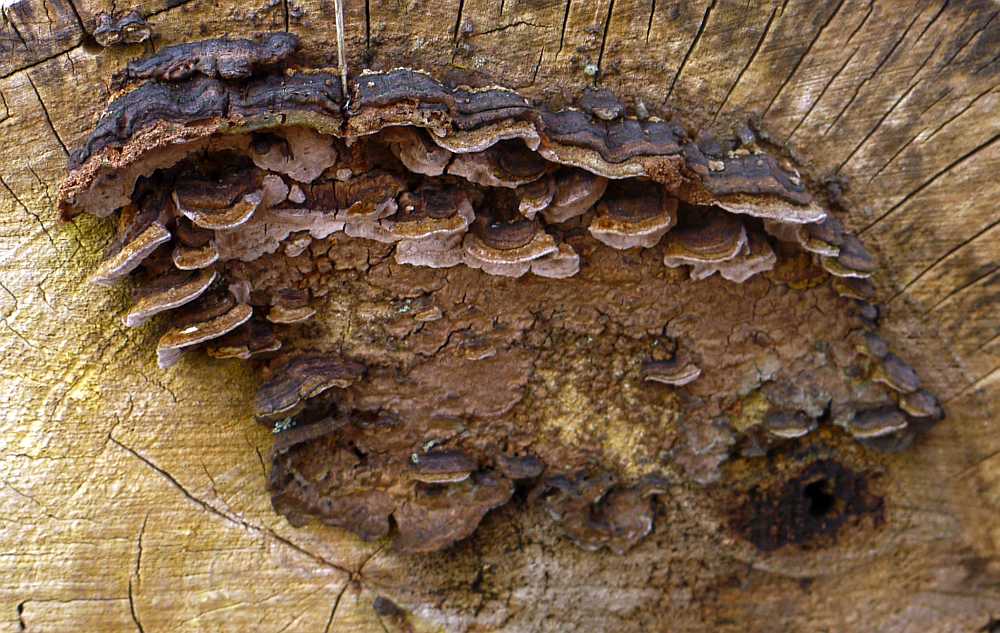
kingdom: Fungi
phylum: Basidiomycota
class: Agaricomycetes
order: Hymenochaetales
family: Hymenochaetaceae
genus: Phellinopsis
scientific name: Phellinopsis conchata
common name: pile-ildporesvamp
